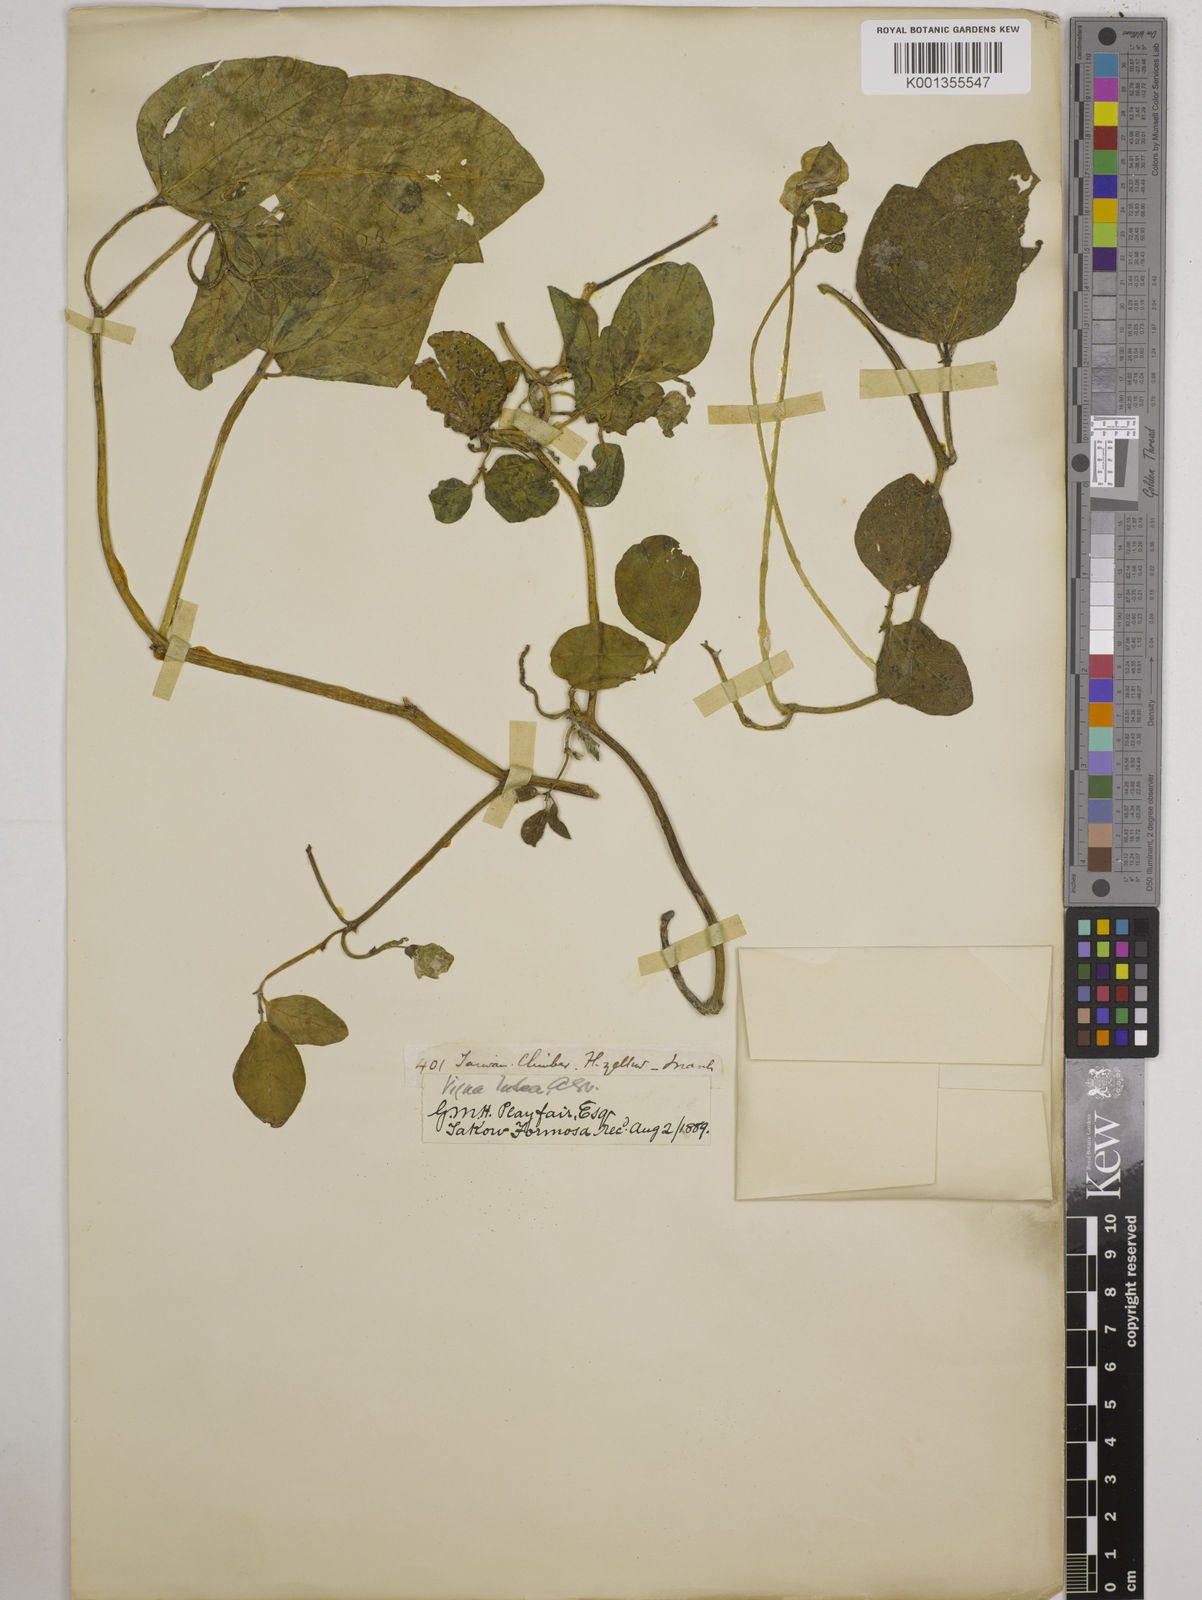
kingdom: Plantae
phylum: Tracheophyta
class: Magnoliopsida
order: Fabales
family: Fabaceae
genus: Vigna
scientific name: Vigna marina
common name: Dune-bean
